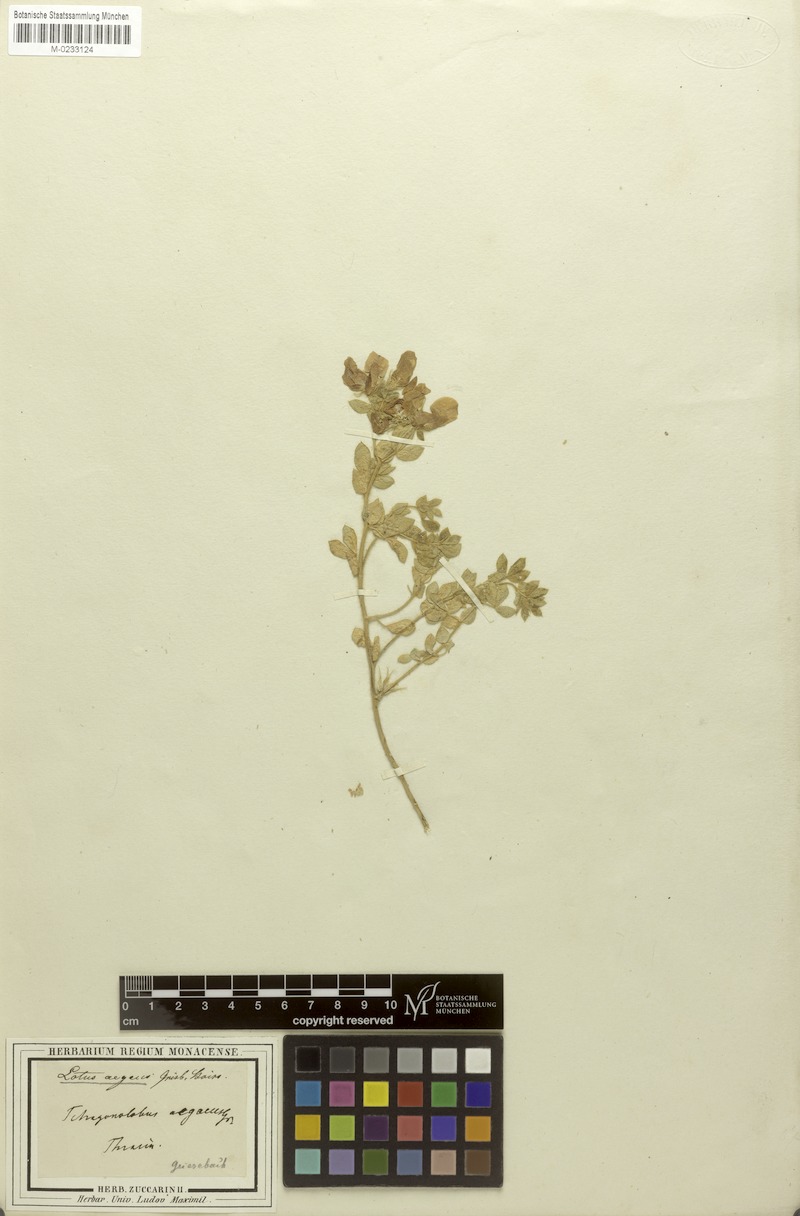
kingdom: Plantae
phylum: Tracheophyta
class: Magnoliopsida
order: Fabales
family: Fabaceae
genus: Lotus
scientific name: Lotus aegaeus
